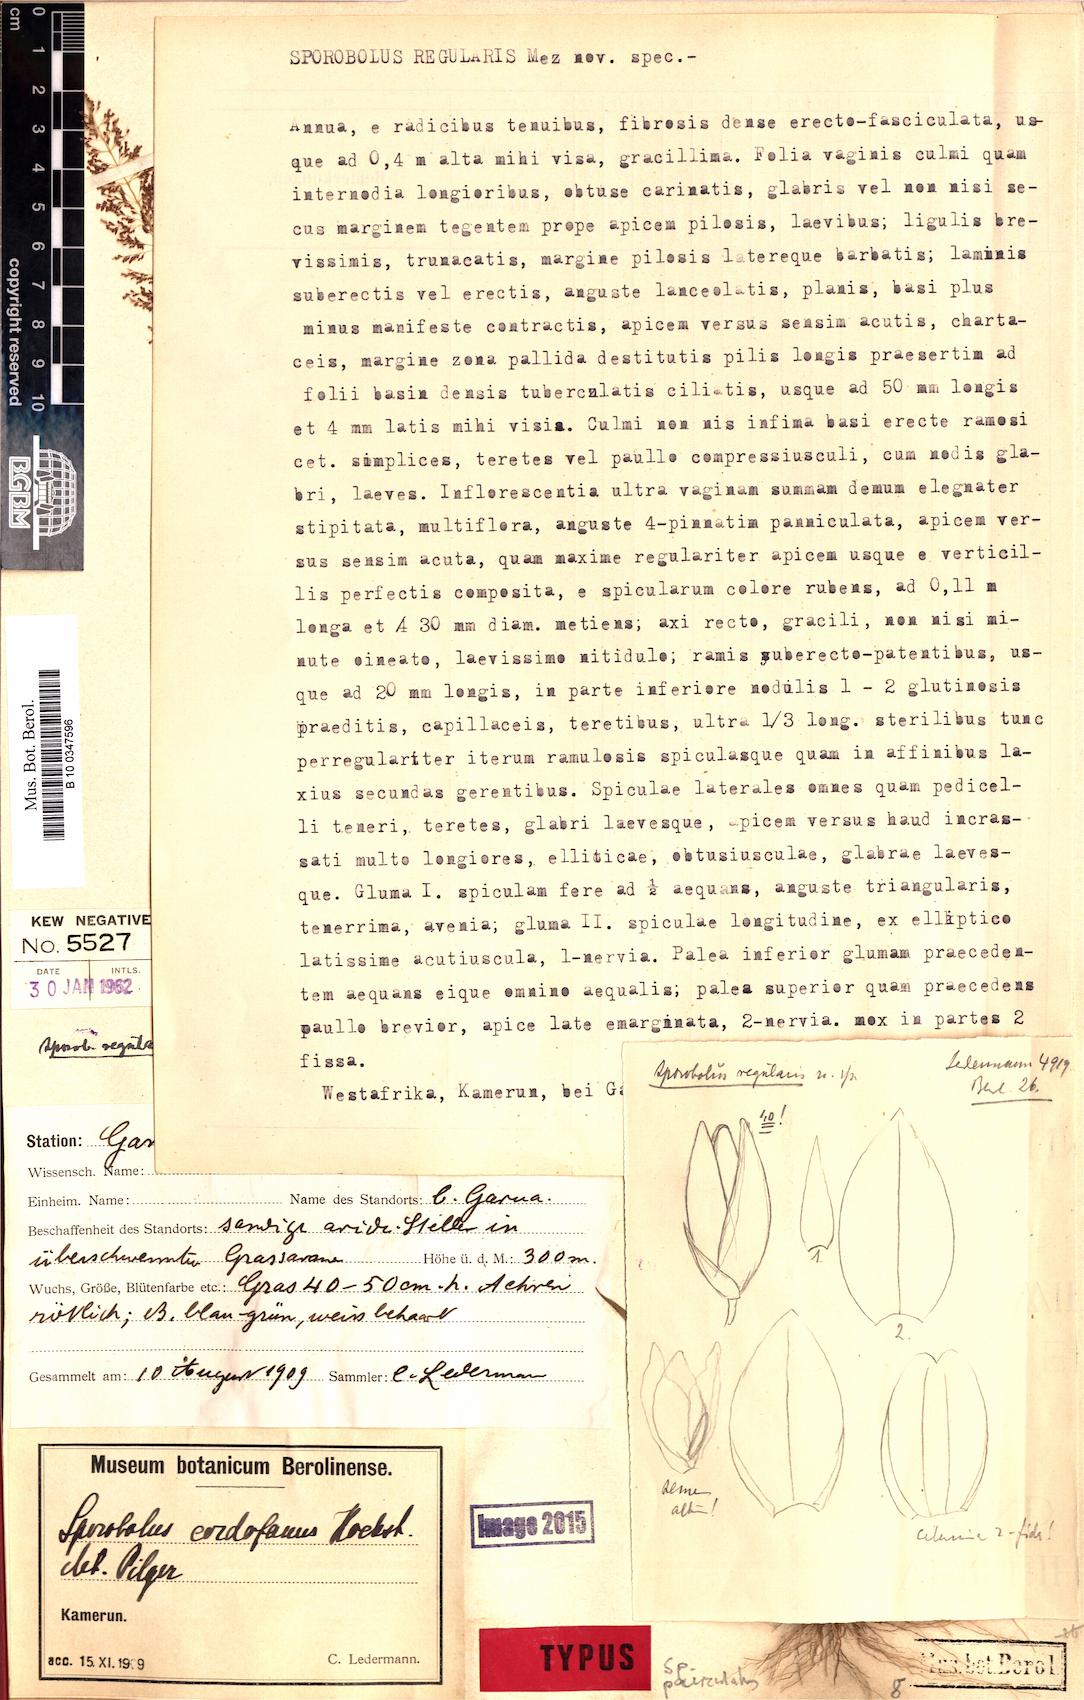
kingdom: Plantae
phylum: Tracheophyta
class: Liliopsida
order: Poales
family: Poaceae
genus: Sporobolus
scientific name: Sporobolus paniculatus
